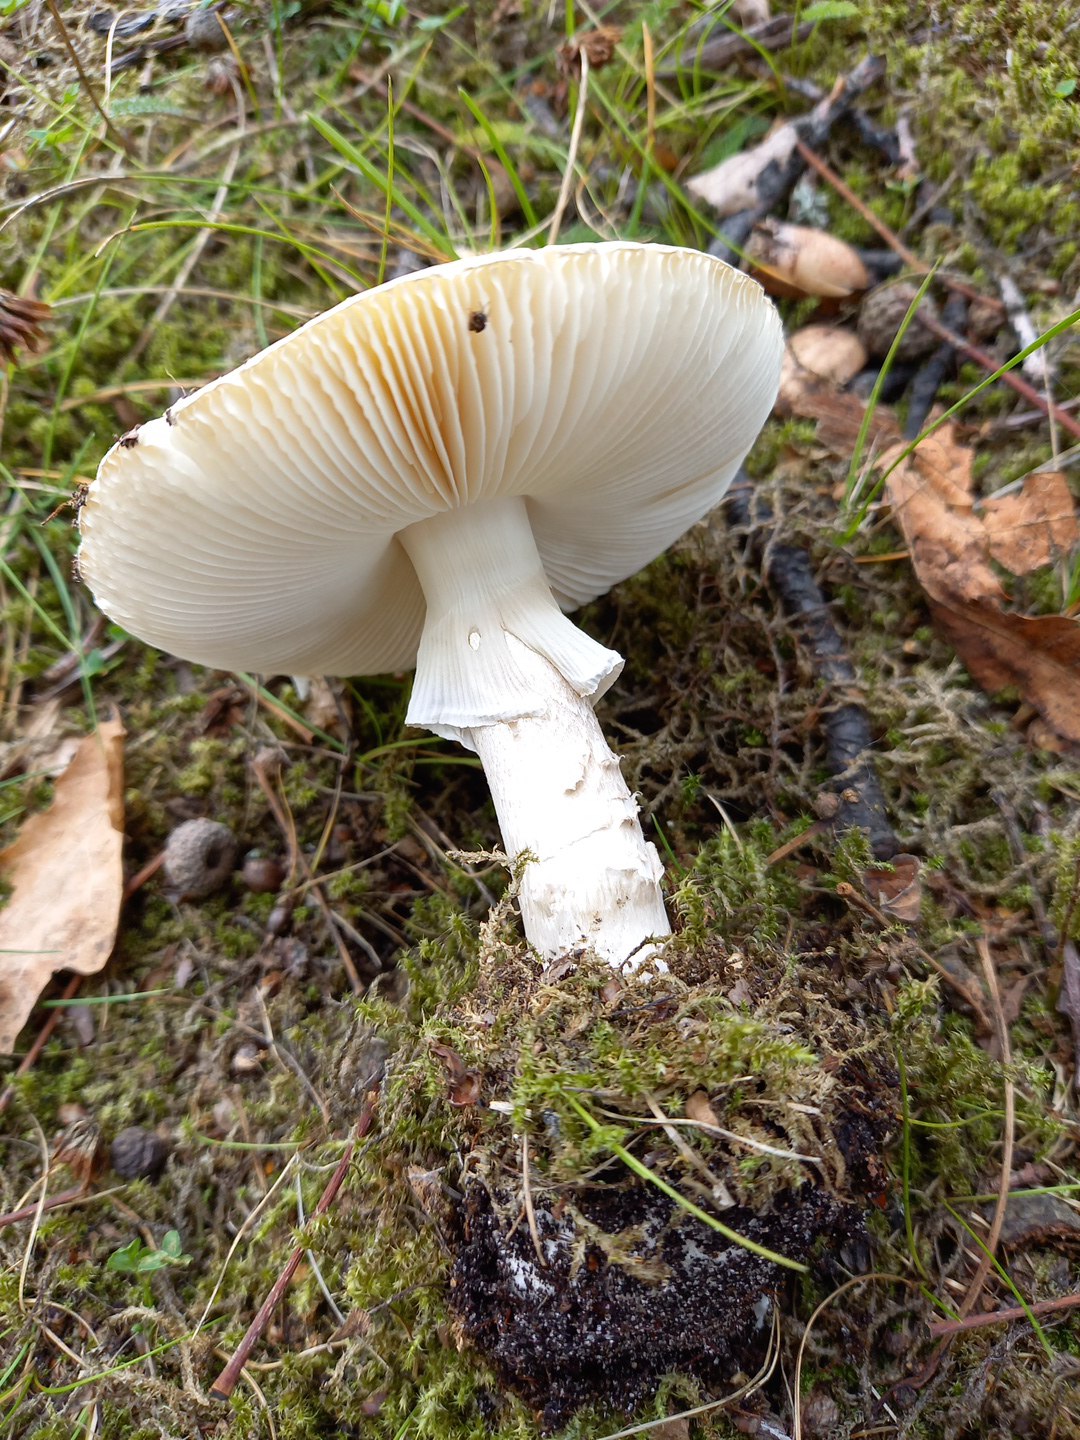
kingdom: Fungi
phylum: Basidiomycota
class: Agaricomycetes
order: Agaricales
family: Amanitaceae
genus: Amanita
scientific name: Amanita phalloides
